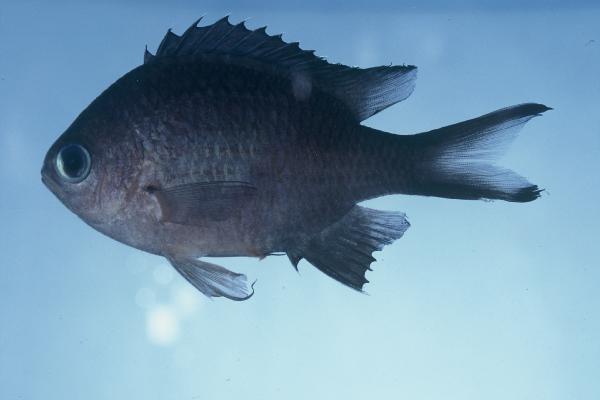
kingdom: Animalia
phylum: Chordata
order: Perciformes
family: Pomacentridae
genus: Chromis
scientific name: Chromis lepidolepis
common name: Scaly chromis
